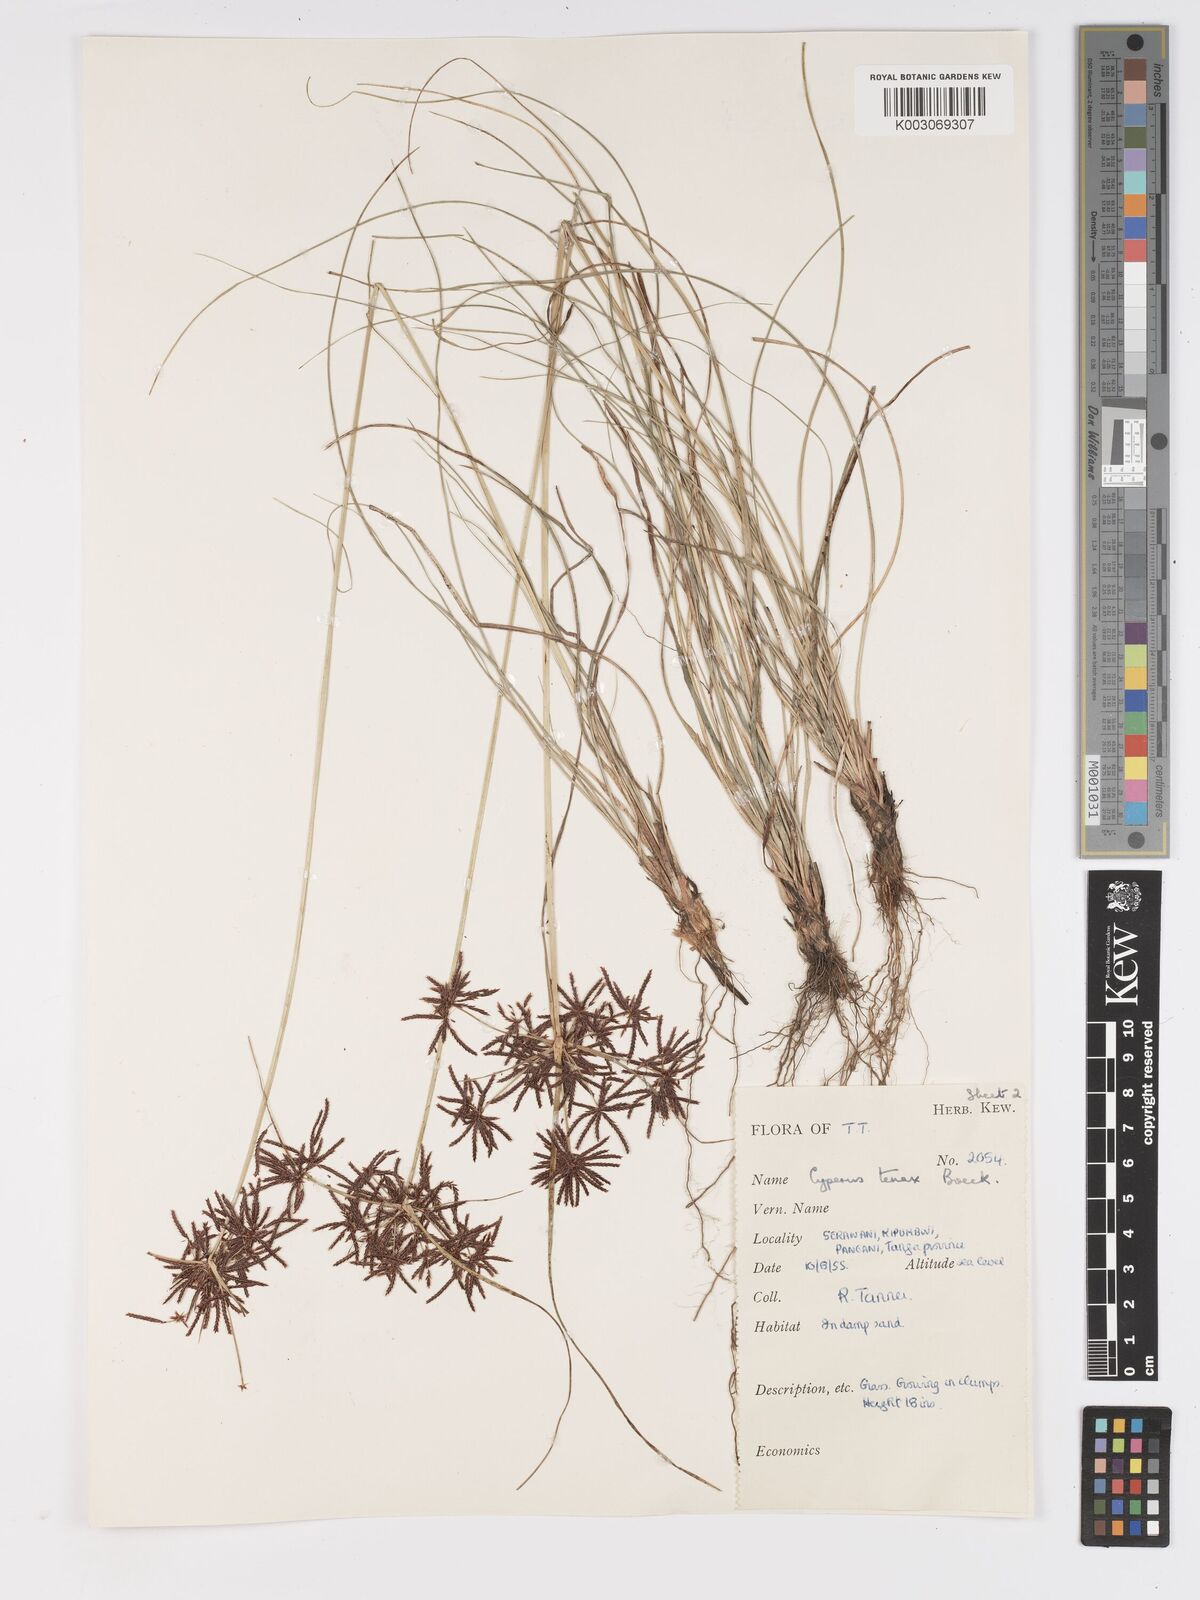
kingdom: Plantae
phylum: Tracheophyta
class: Liliopsida
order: Poales
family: Cyperaceae
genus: Cyperus
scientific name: Cyperus tenax
